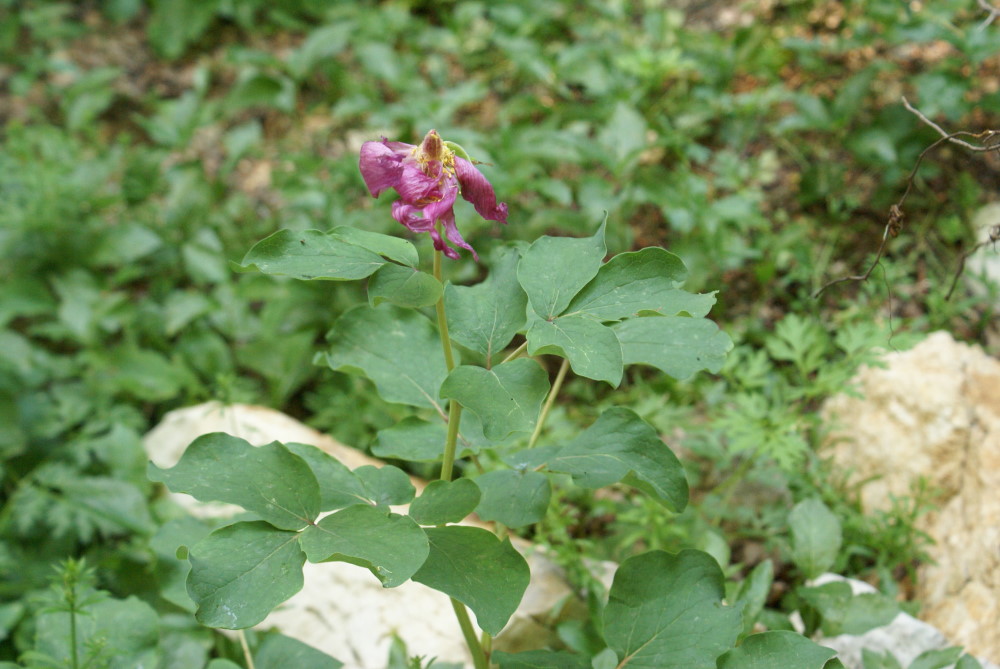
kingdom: Plantae
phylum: Tracheophyta
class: Magnoliopsida
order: Saxifragales
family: Paeoniaceae
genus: Paeonia
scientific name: Paeonia daurica
